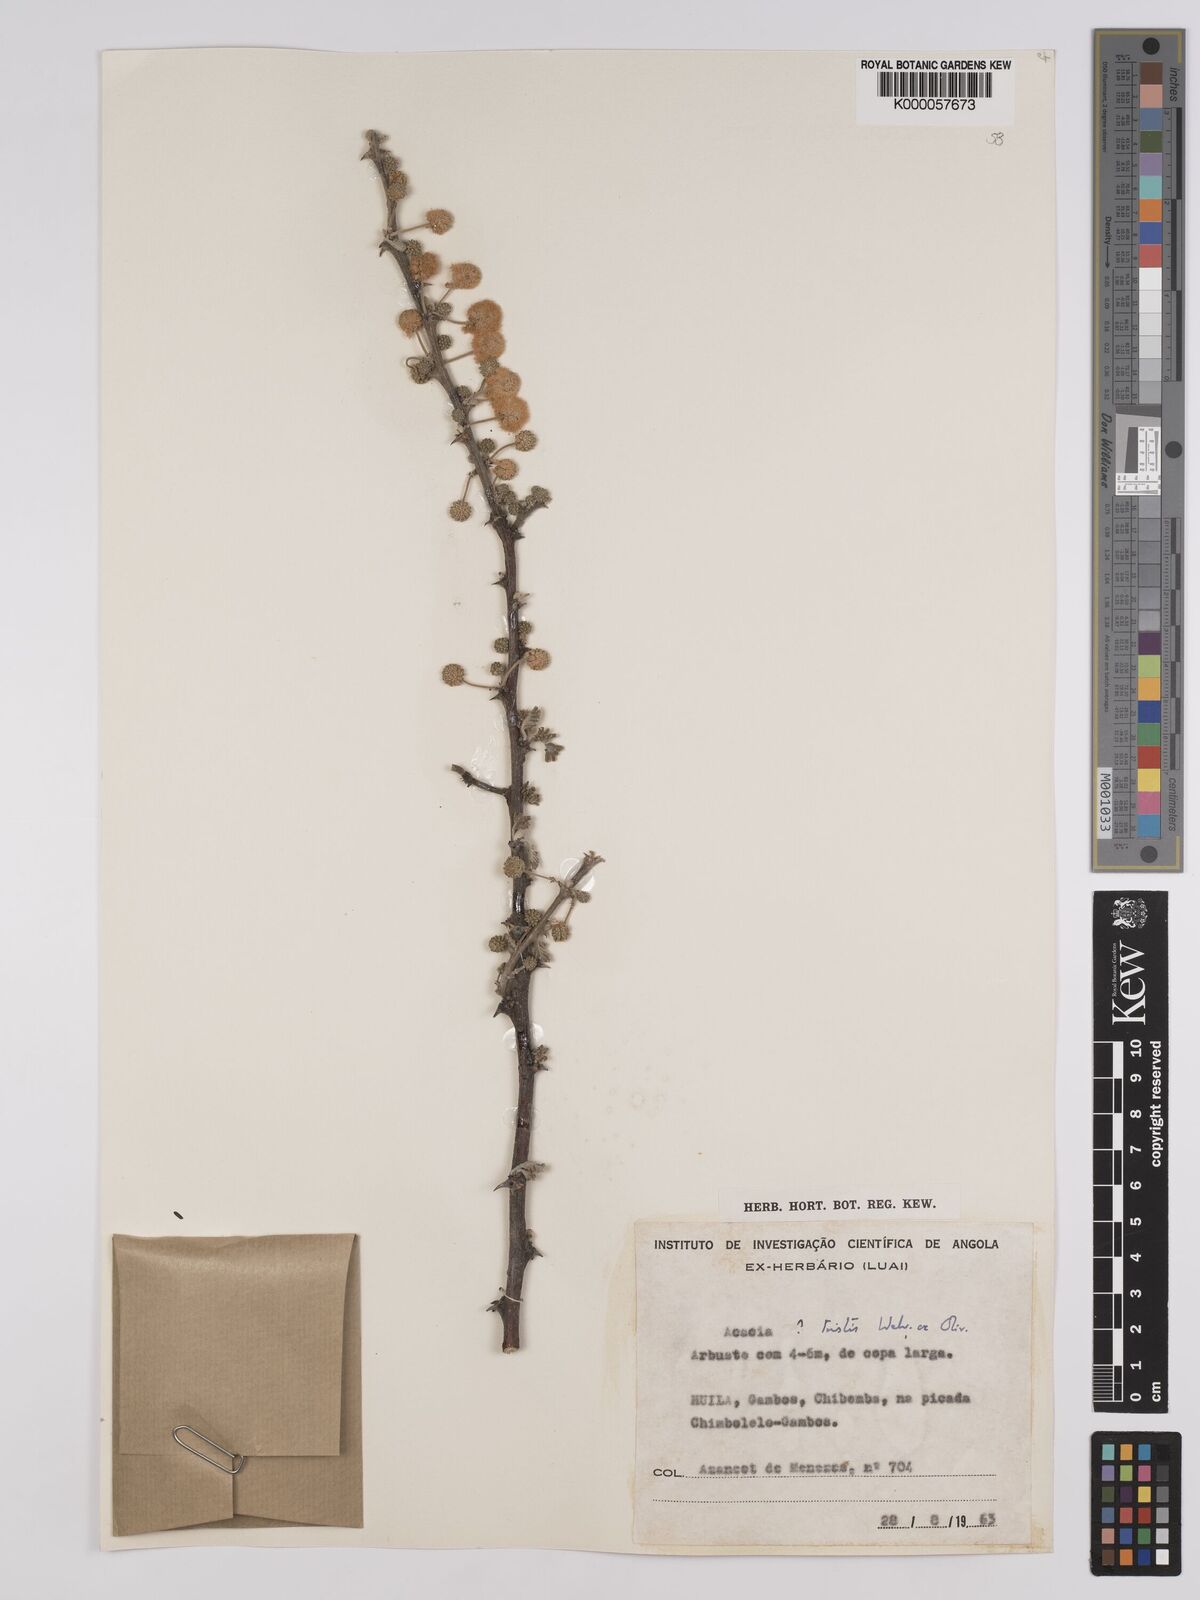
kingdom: Plantae
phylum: Tracheophyta
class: Magnoliopsida
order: Fabales
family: Fabaceae
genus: Vachellia
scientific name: Vachellia hebeclada
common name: Candle thorn
